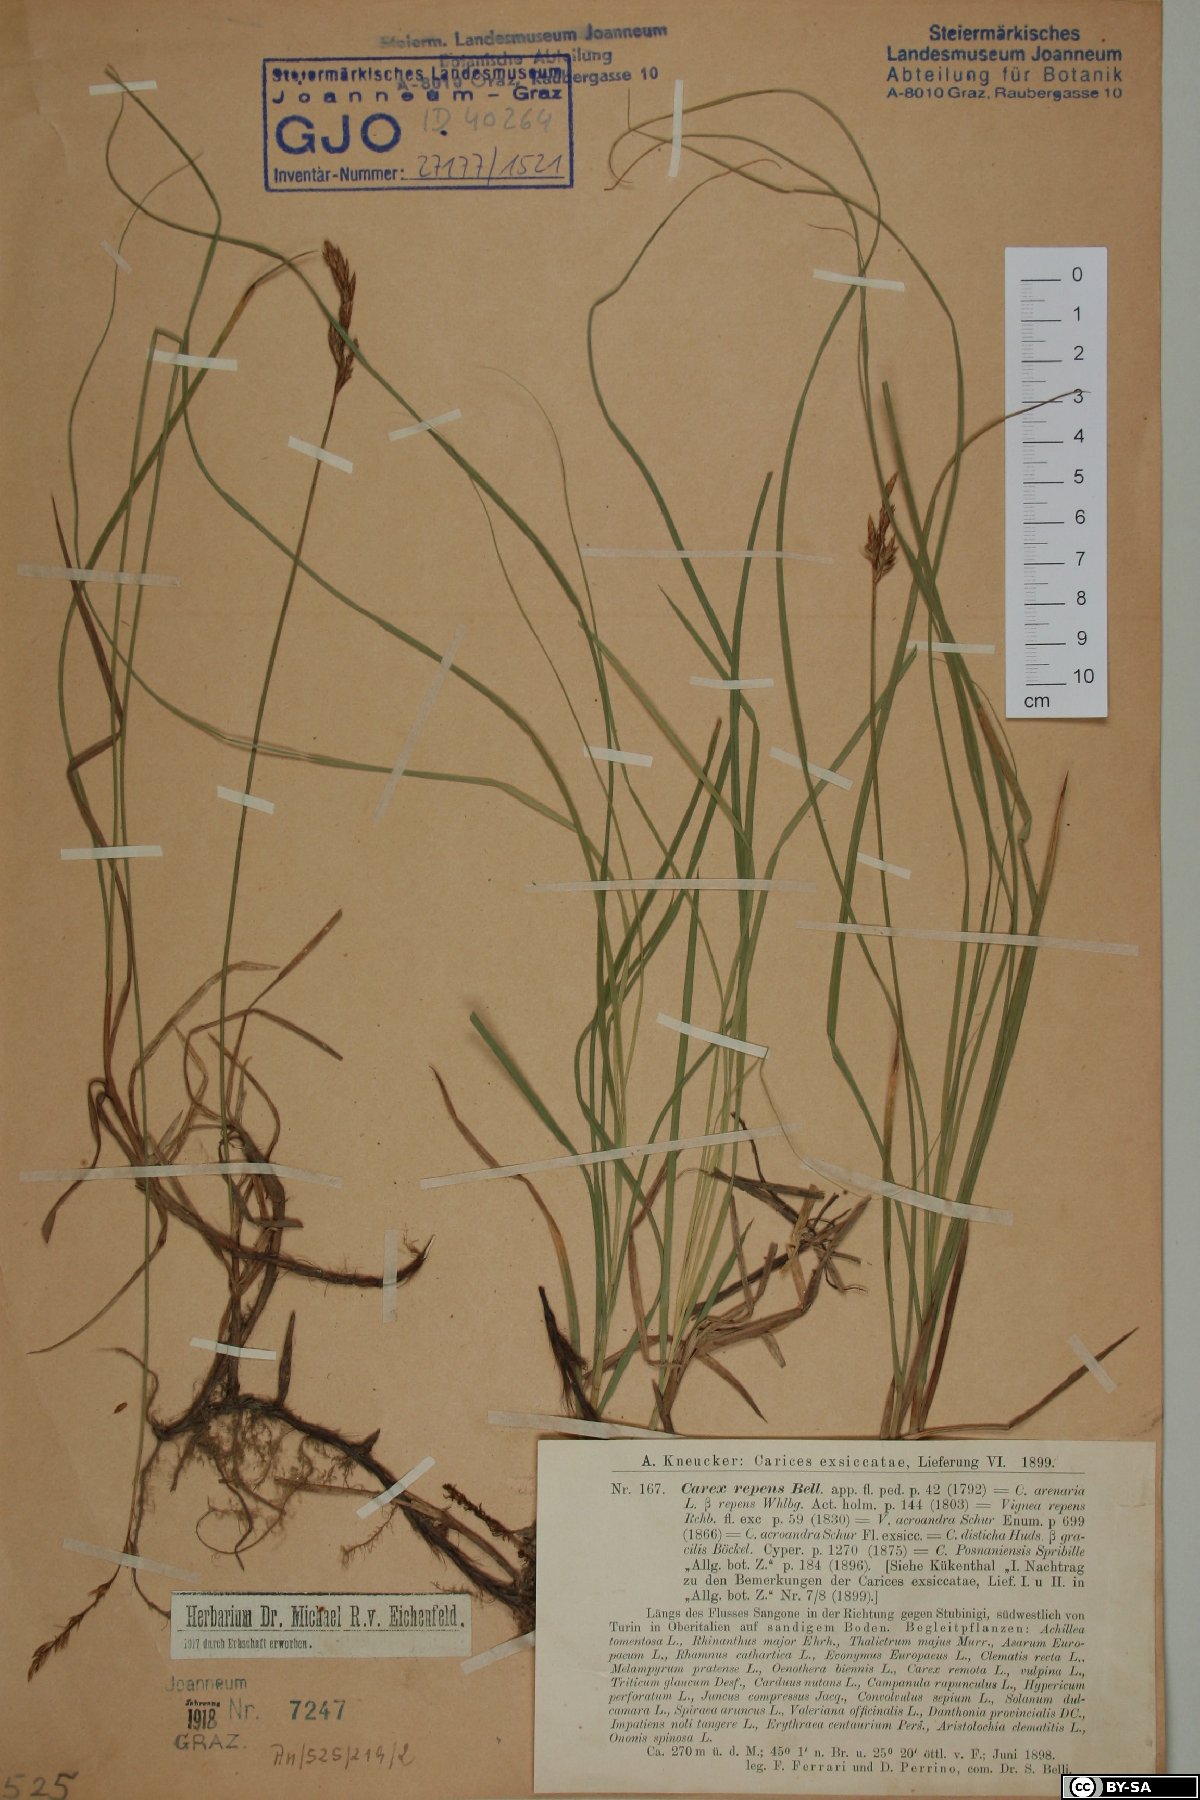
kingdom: Plantae
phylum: Tracheophyta
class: Liliopsida
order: Poales
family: Cyperaceae
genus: Carex
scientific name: Carex repens
